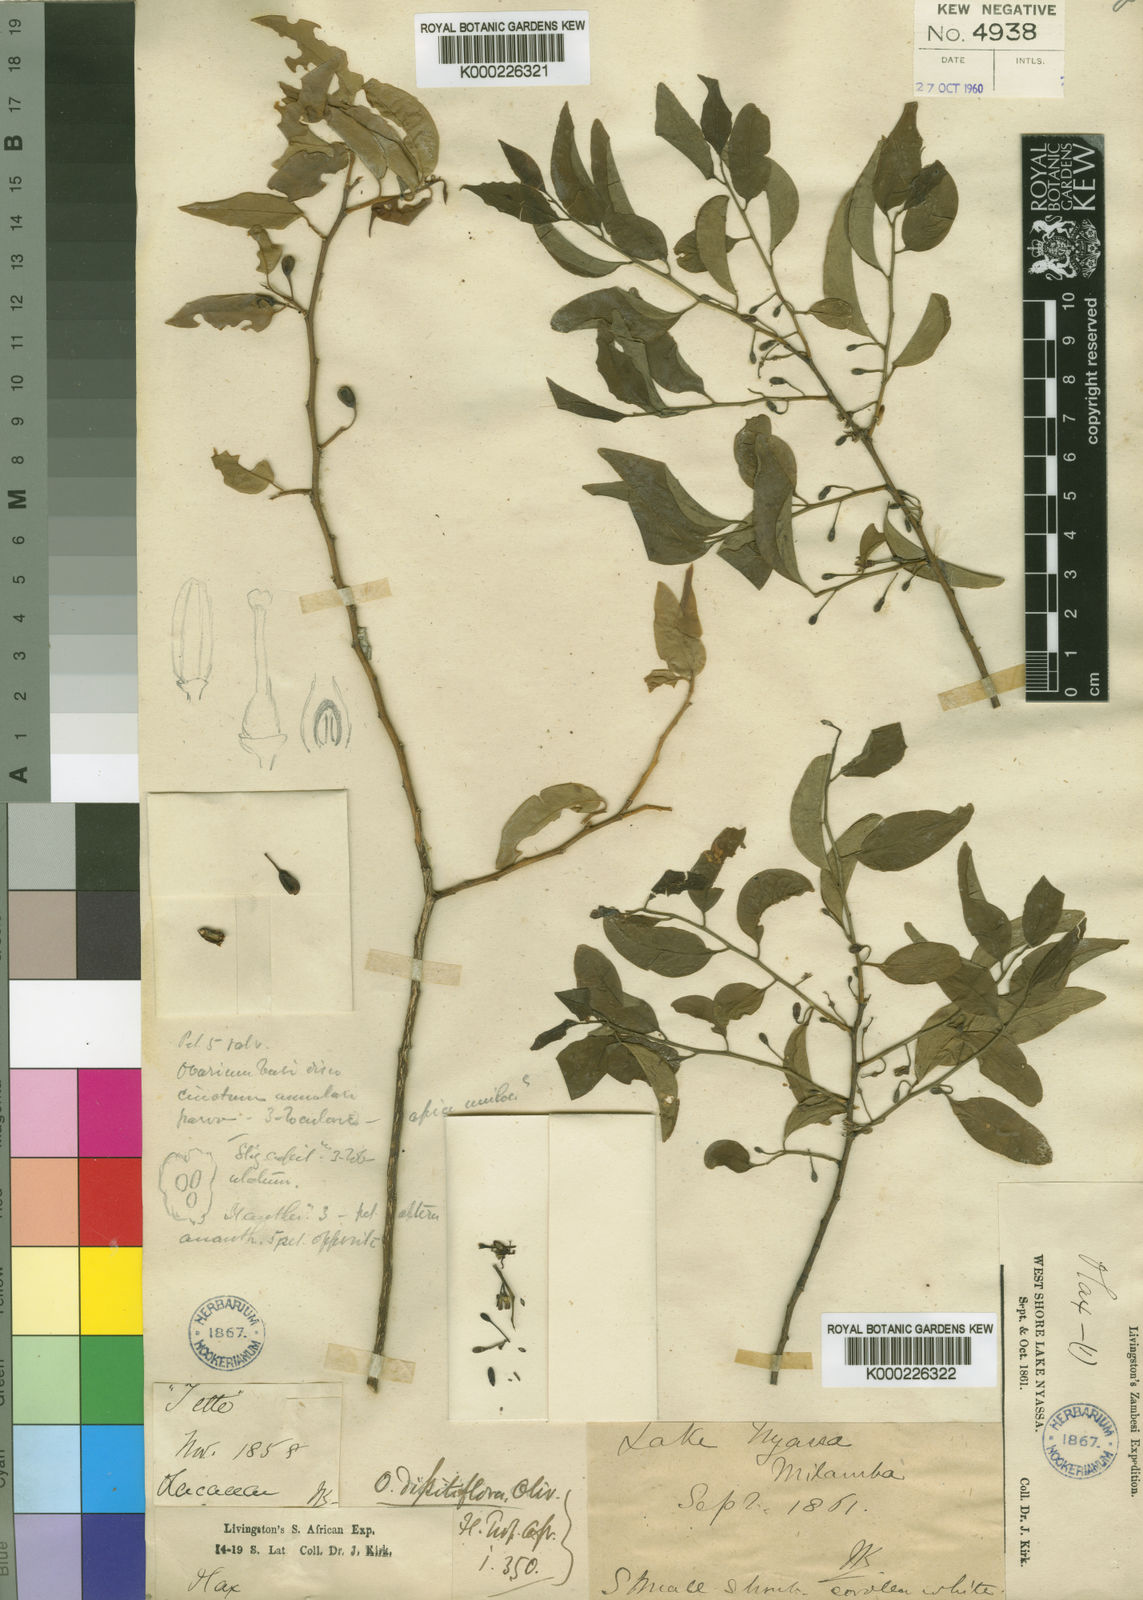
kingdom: Plantae
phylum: Tracheophyta
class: Magnoliopsida
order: Santalales
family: Olacaceae
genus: Olax
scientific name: Olax dissitiflora
